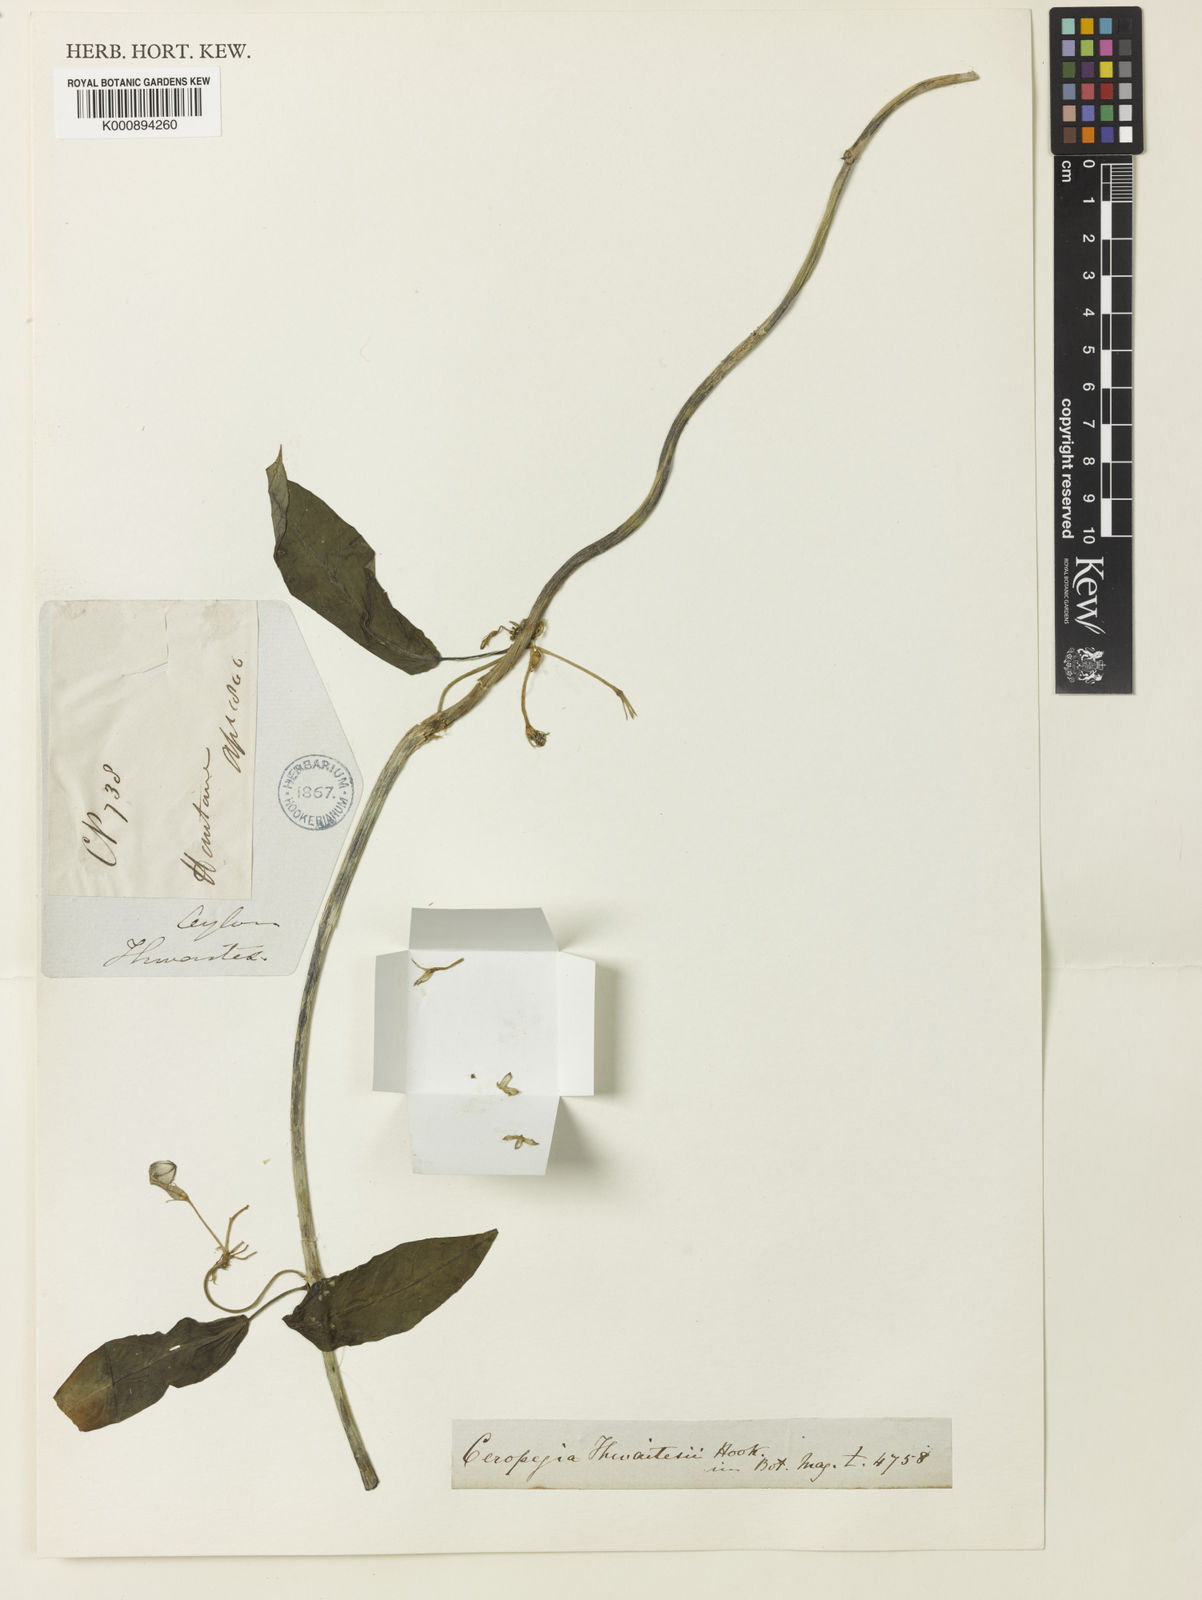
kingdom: Plantae
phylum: Tracheophyta
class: Magnoliopsida
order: Gentianales
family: Apocynaceae
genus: Ceropegia
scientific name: Ceropegia elegans
